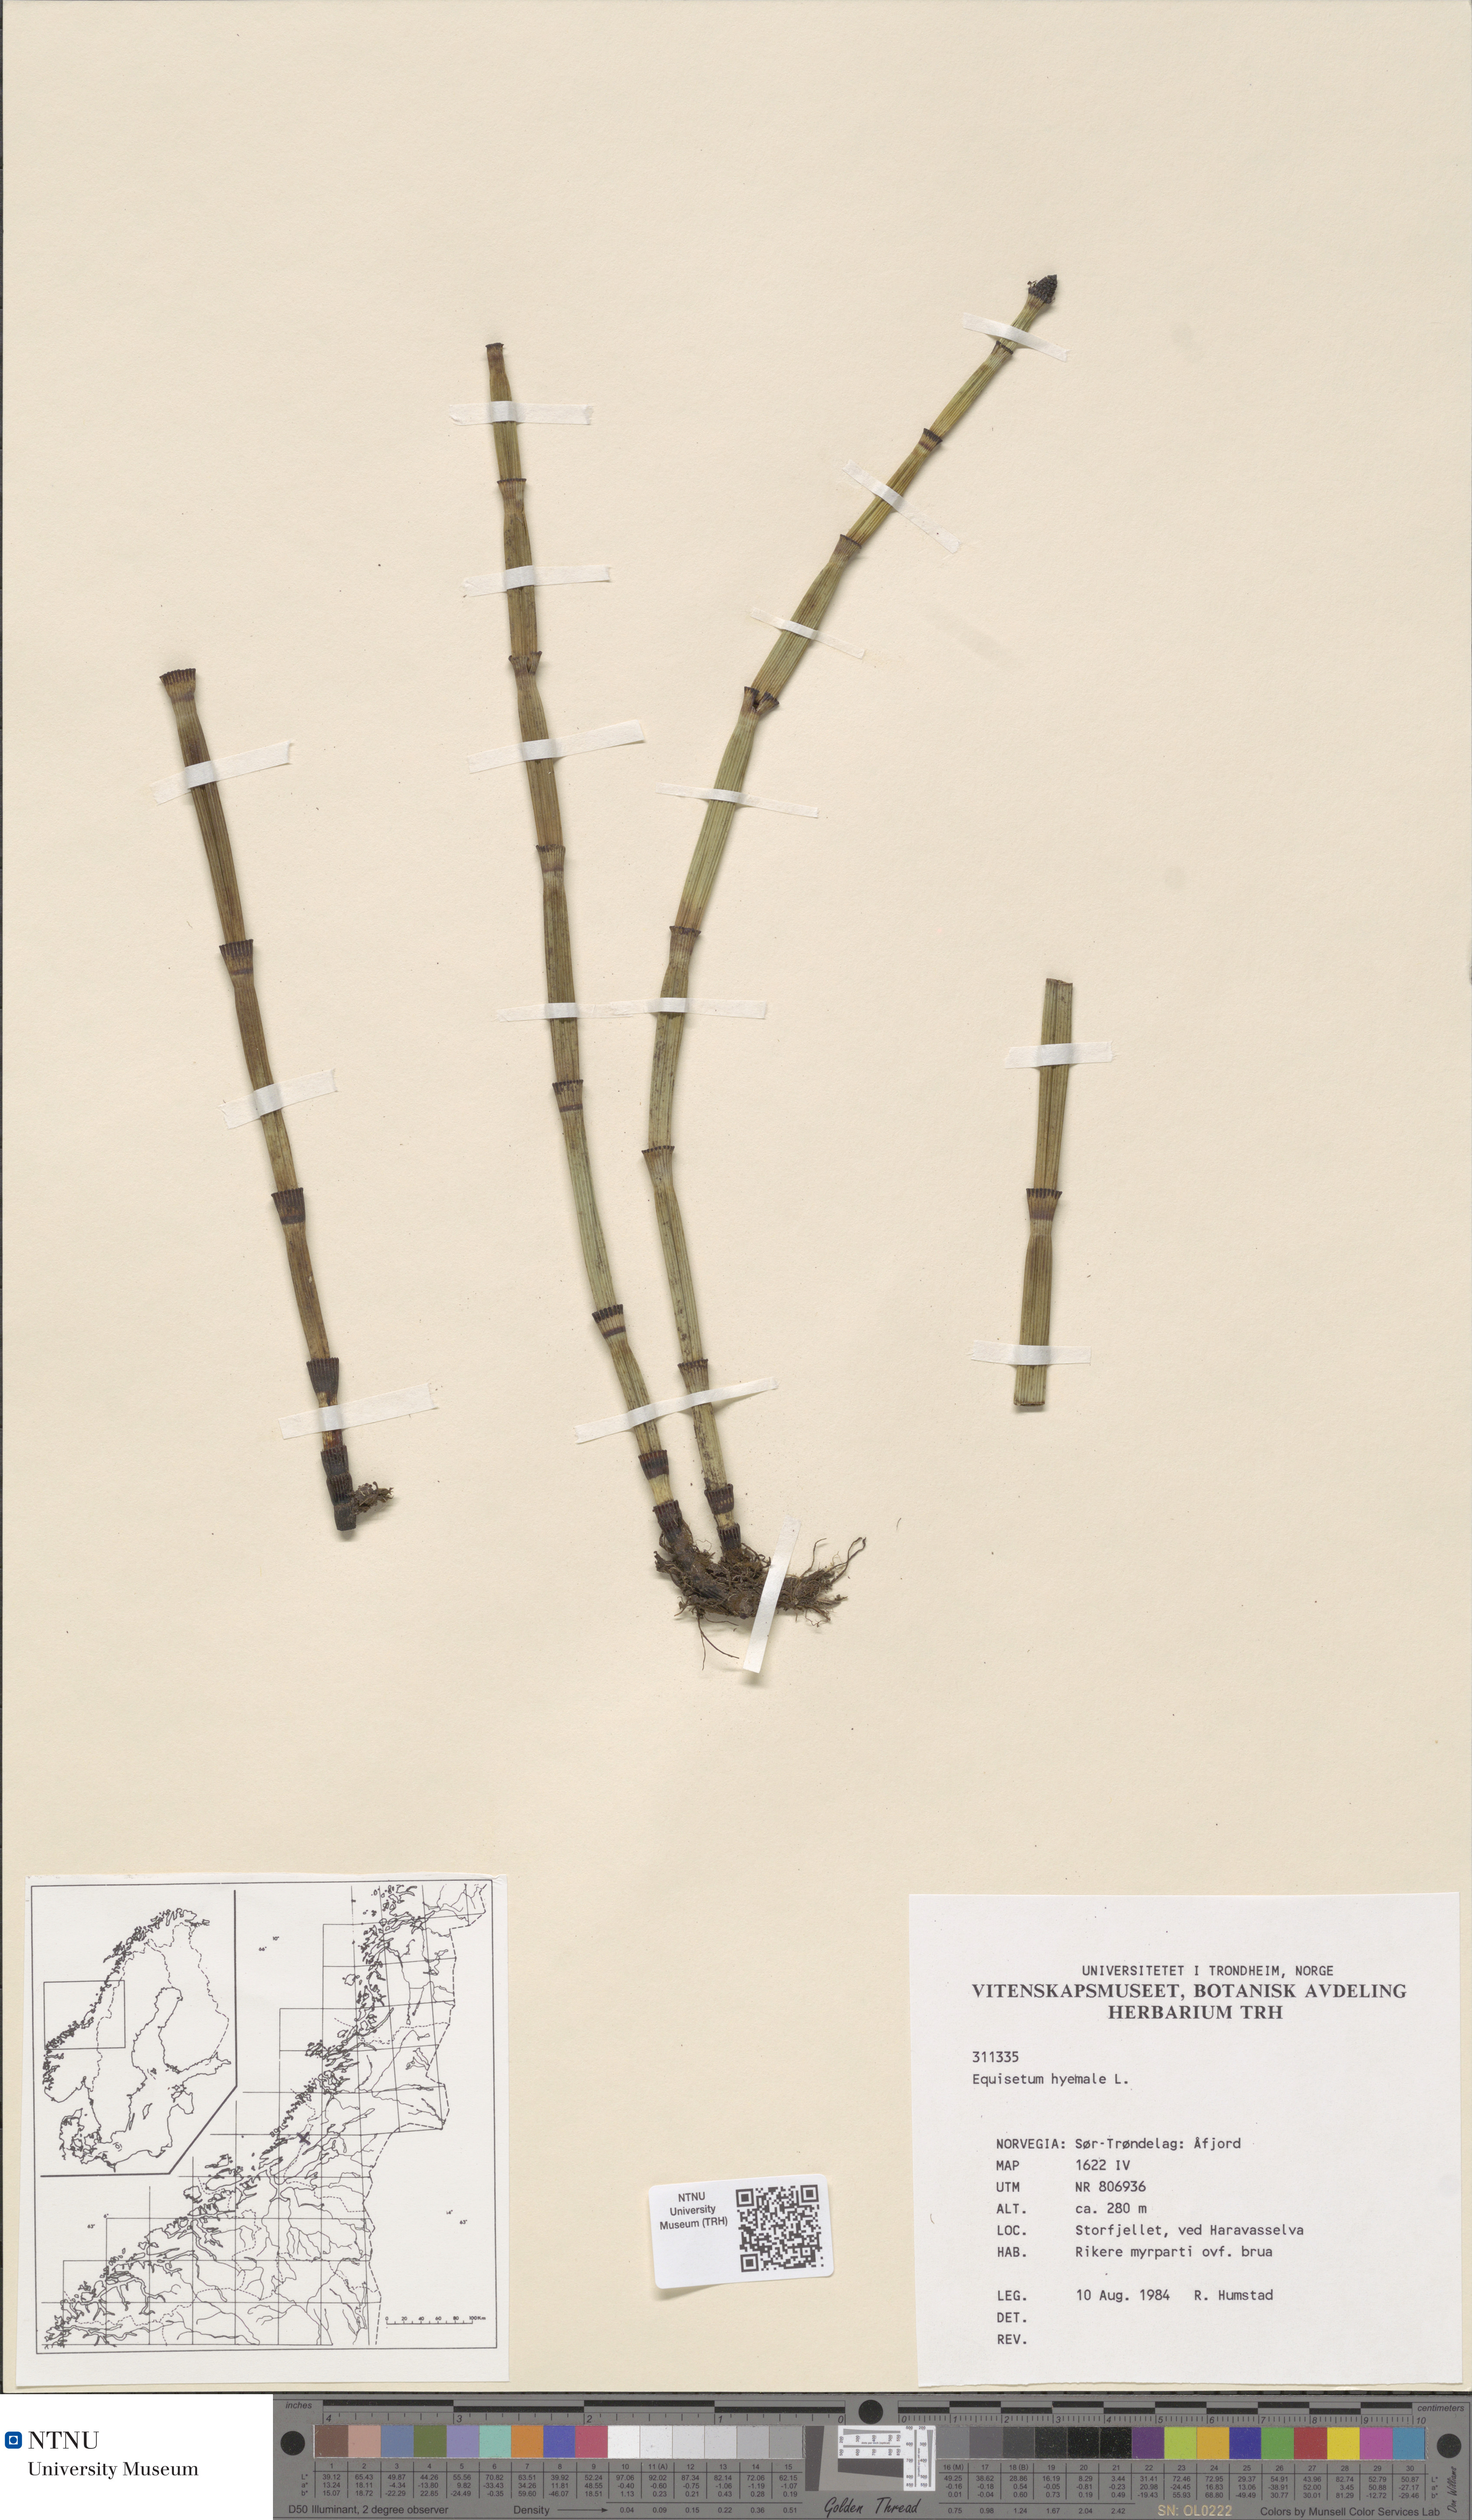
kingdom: Plantae
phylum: Tracheophyta
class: Polypodiopsida
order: Equisetales
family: Equisetaceae
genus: Equisetum
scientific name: Equisetum hyemale
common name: Rough horsetail
